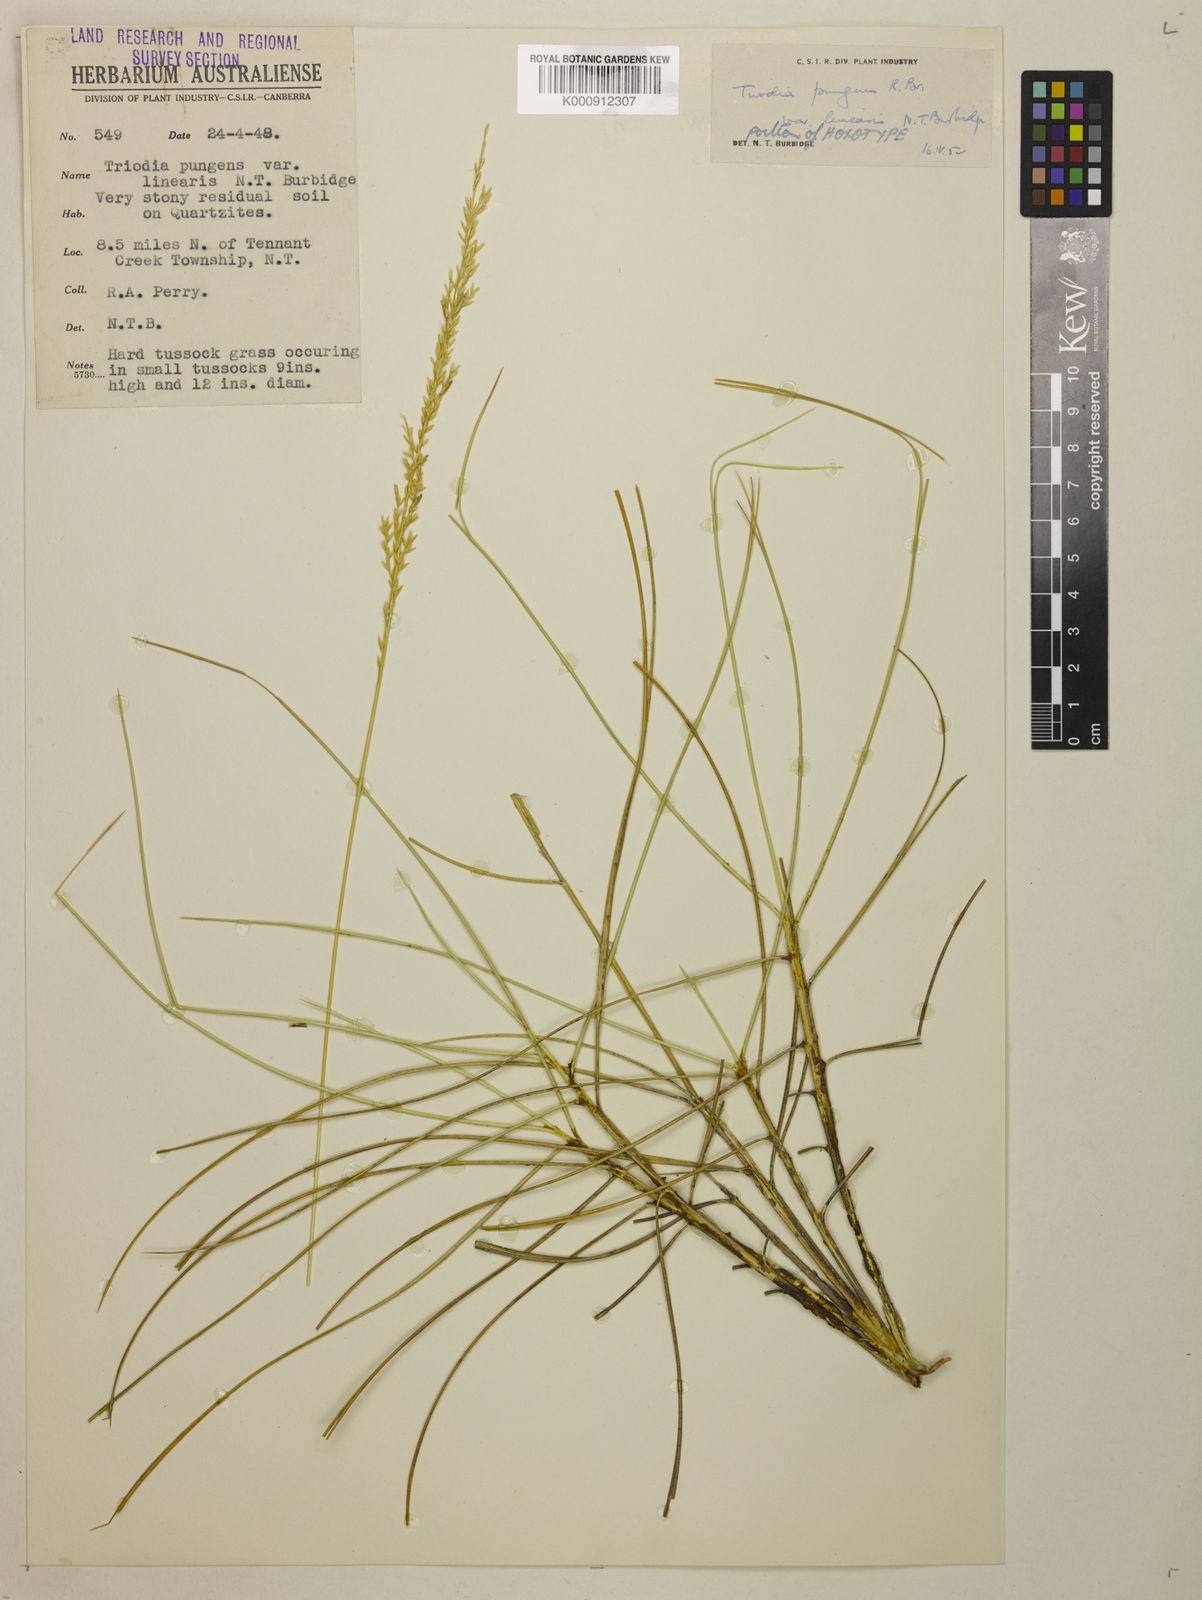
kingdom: Plantae
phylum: Tracheophyta
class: Liliopsida
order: Poales
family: Poaceae
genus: Triodia
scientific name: Triodia pungens
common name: Soft spinifex
